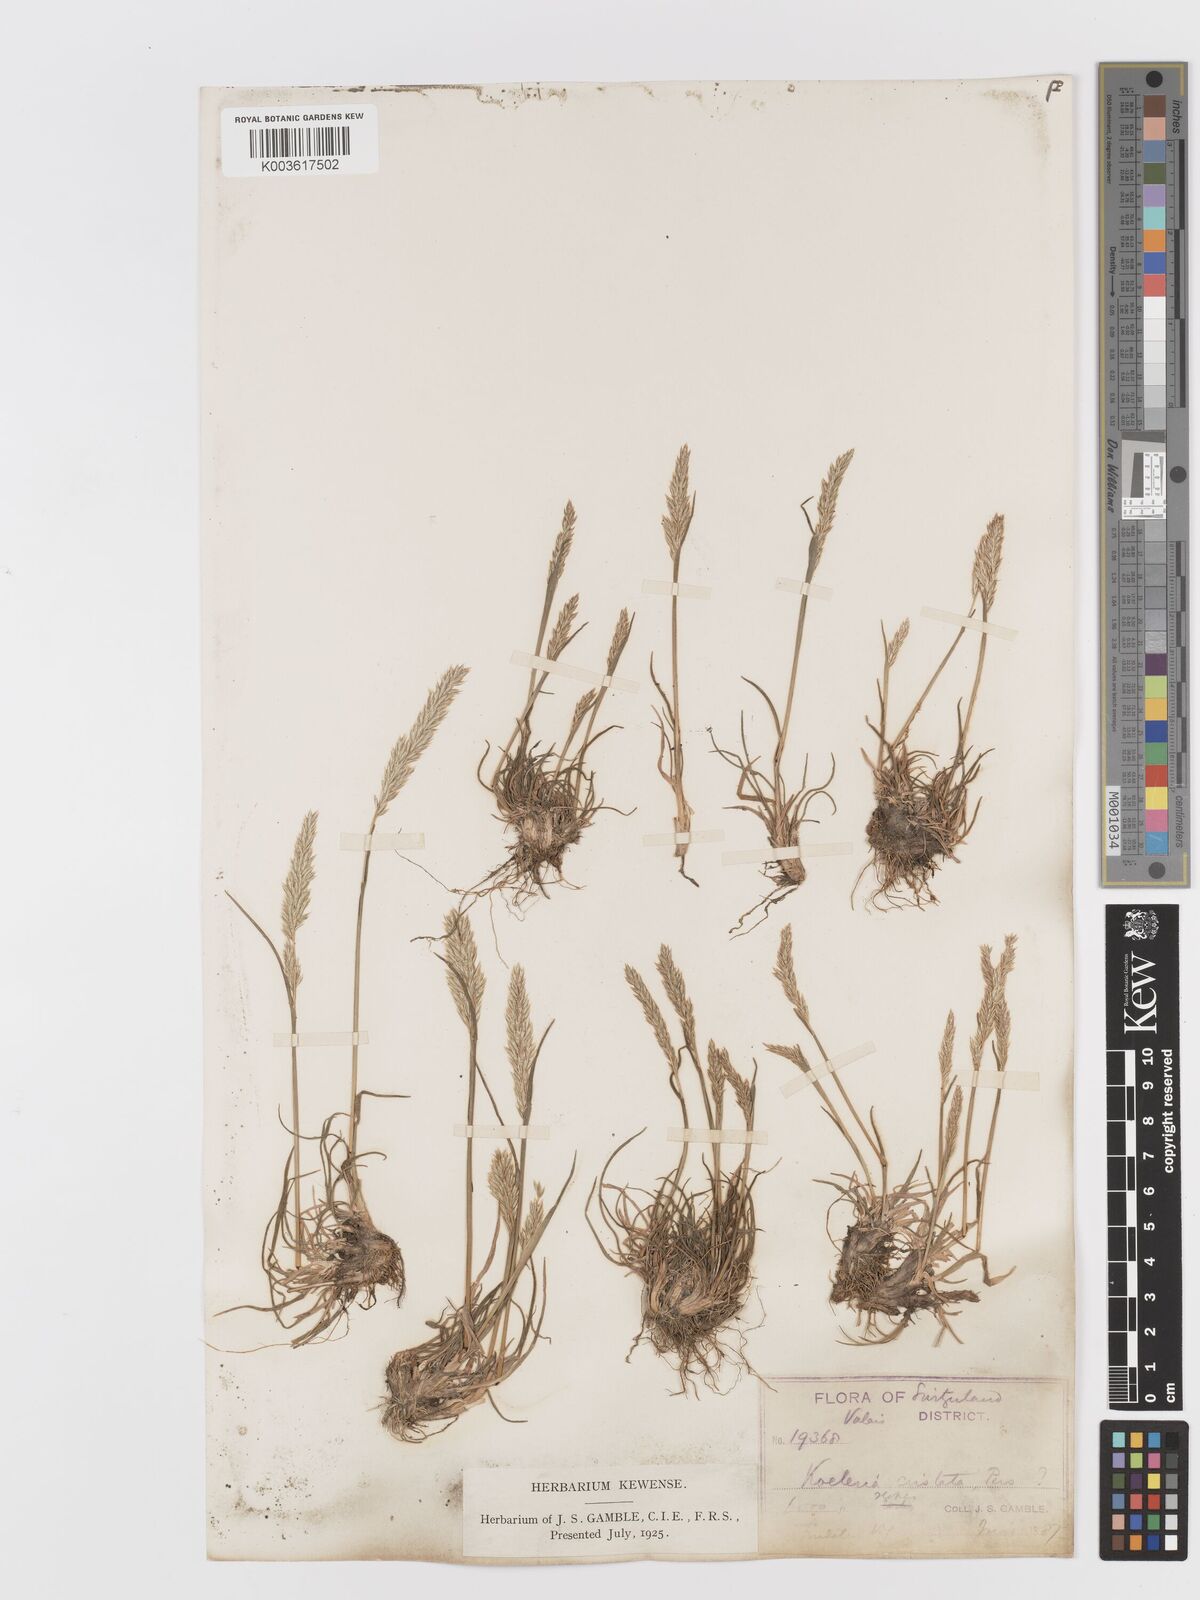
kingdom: Plantae
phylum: Tracheophyta
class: Liliopsida
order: Poales
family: Poaceae
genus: Koeleria
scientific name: Koeleria
